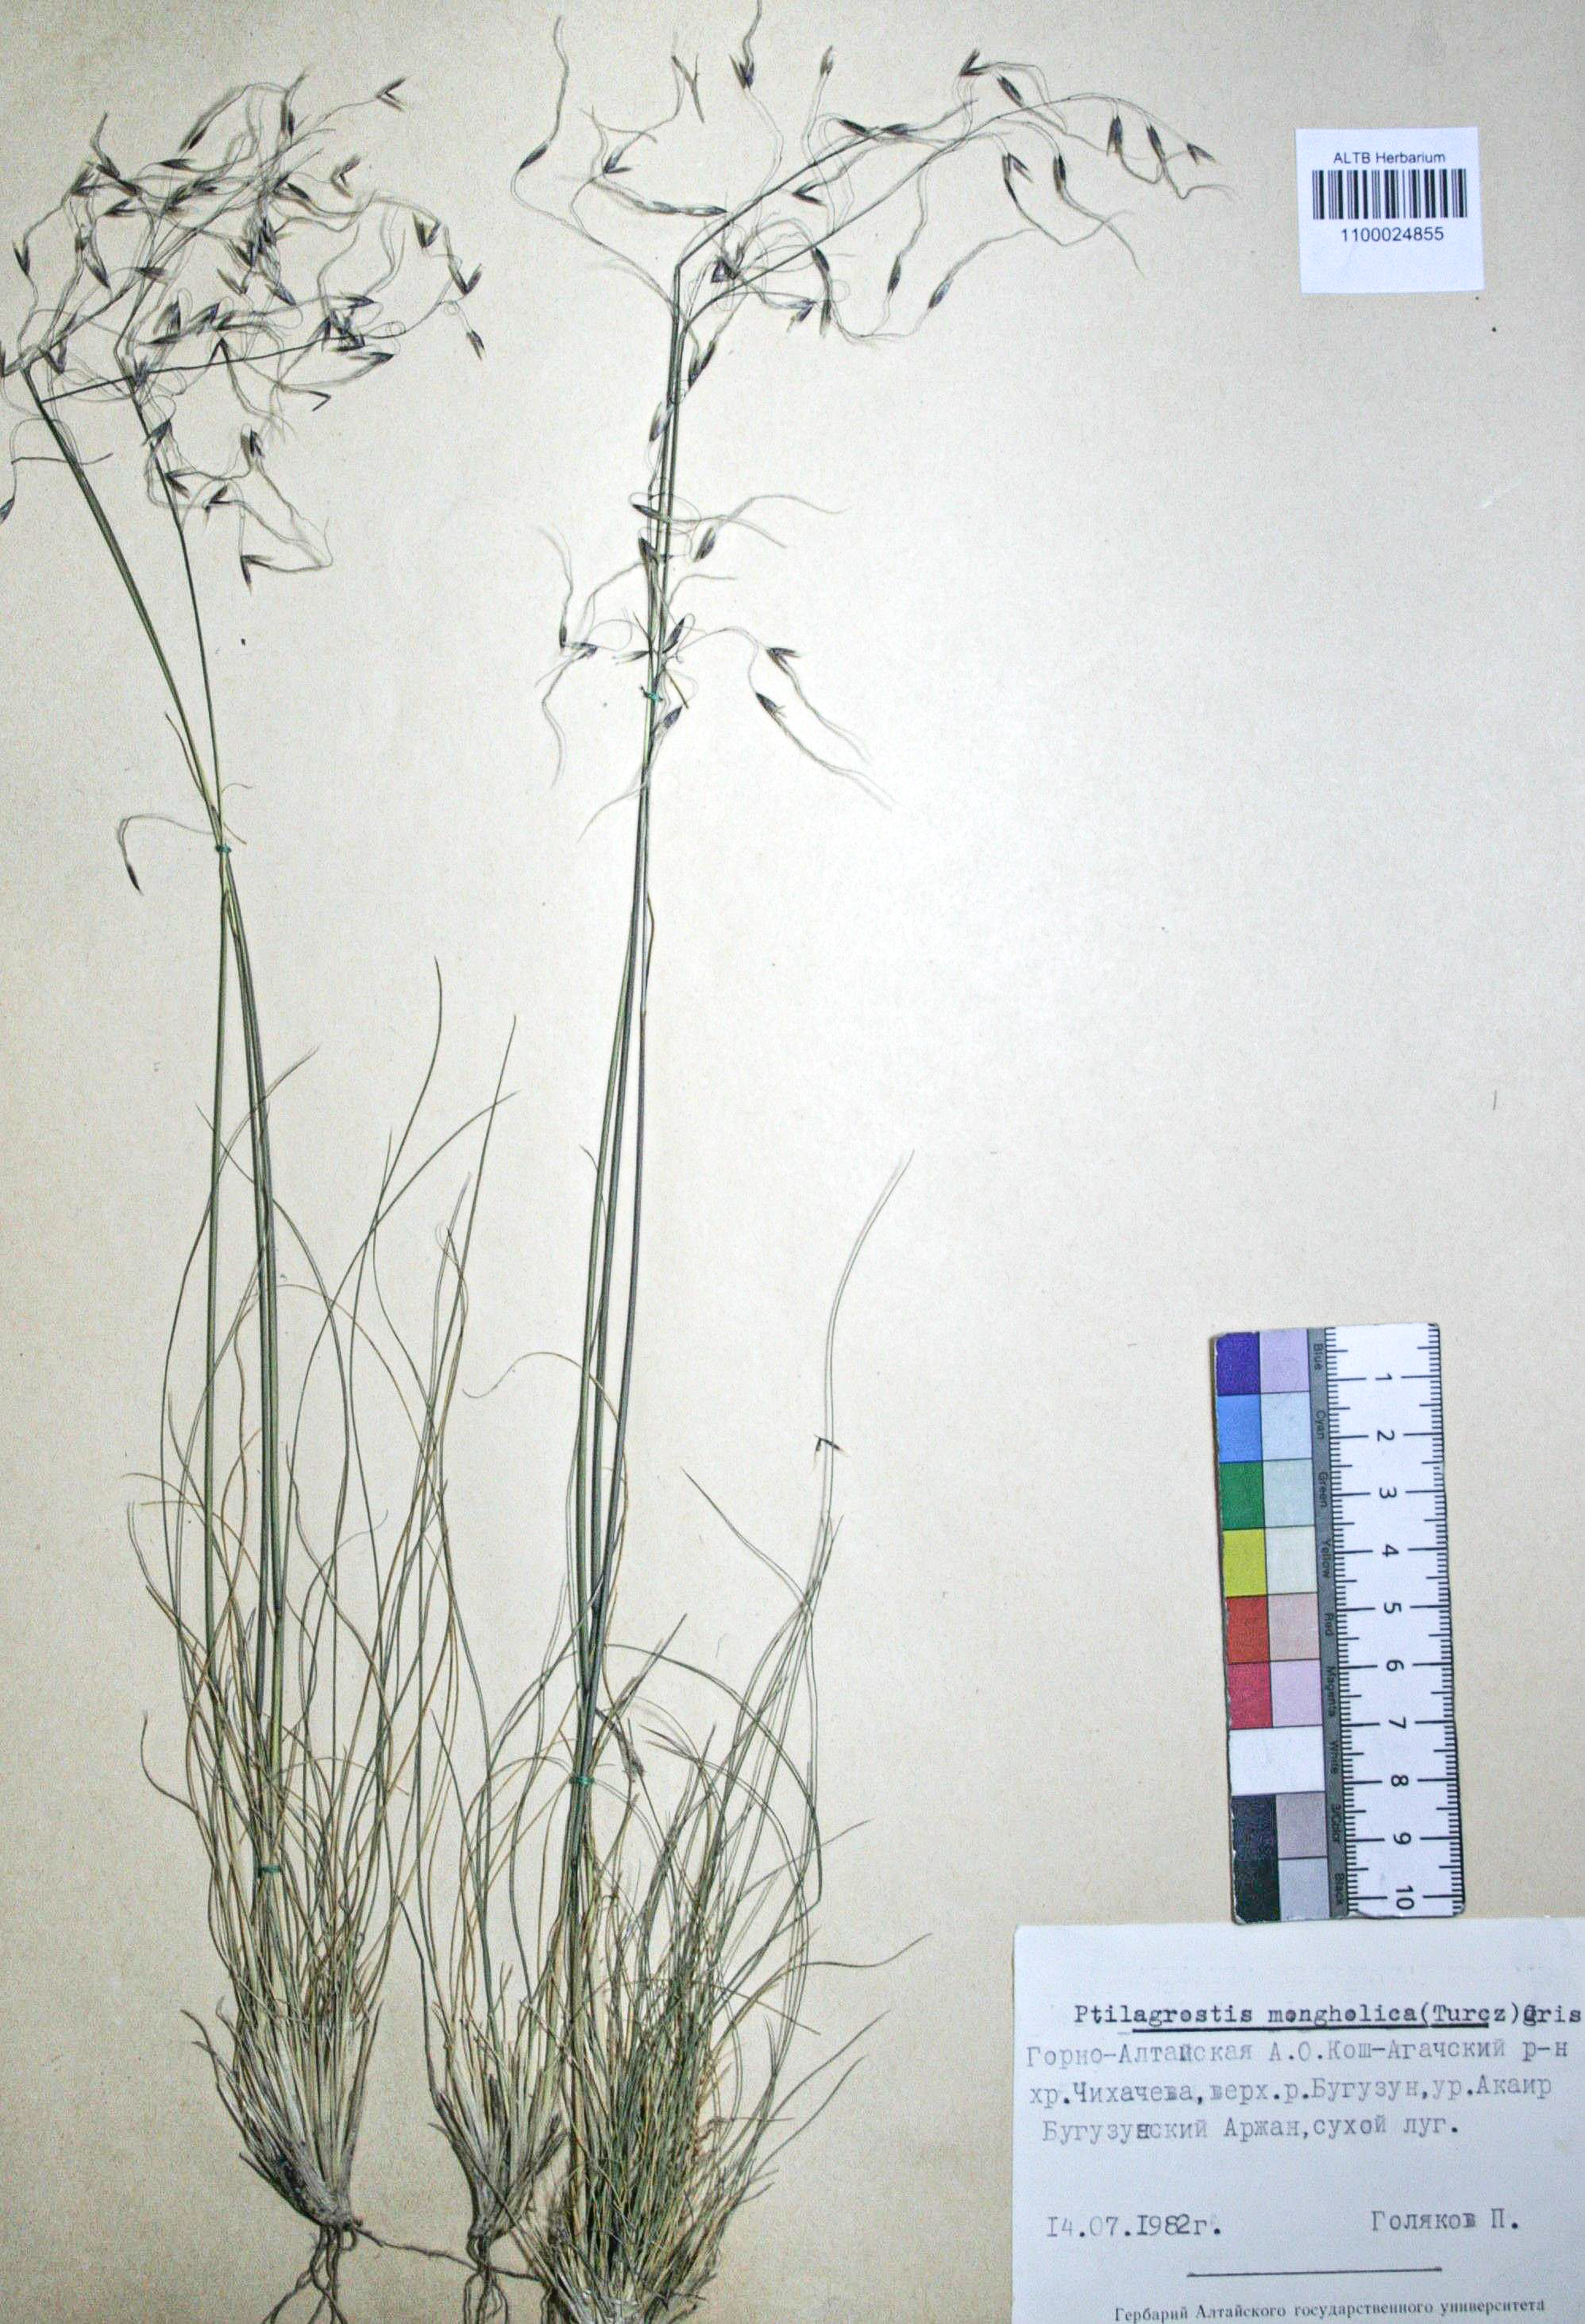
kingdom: Plantae
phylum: Tracheophyta
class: Liliopsida
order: Poales
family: Poaceae
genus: Ptilagrostis
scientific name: Ptilagrostis mongholica
